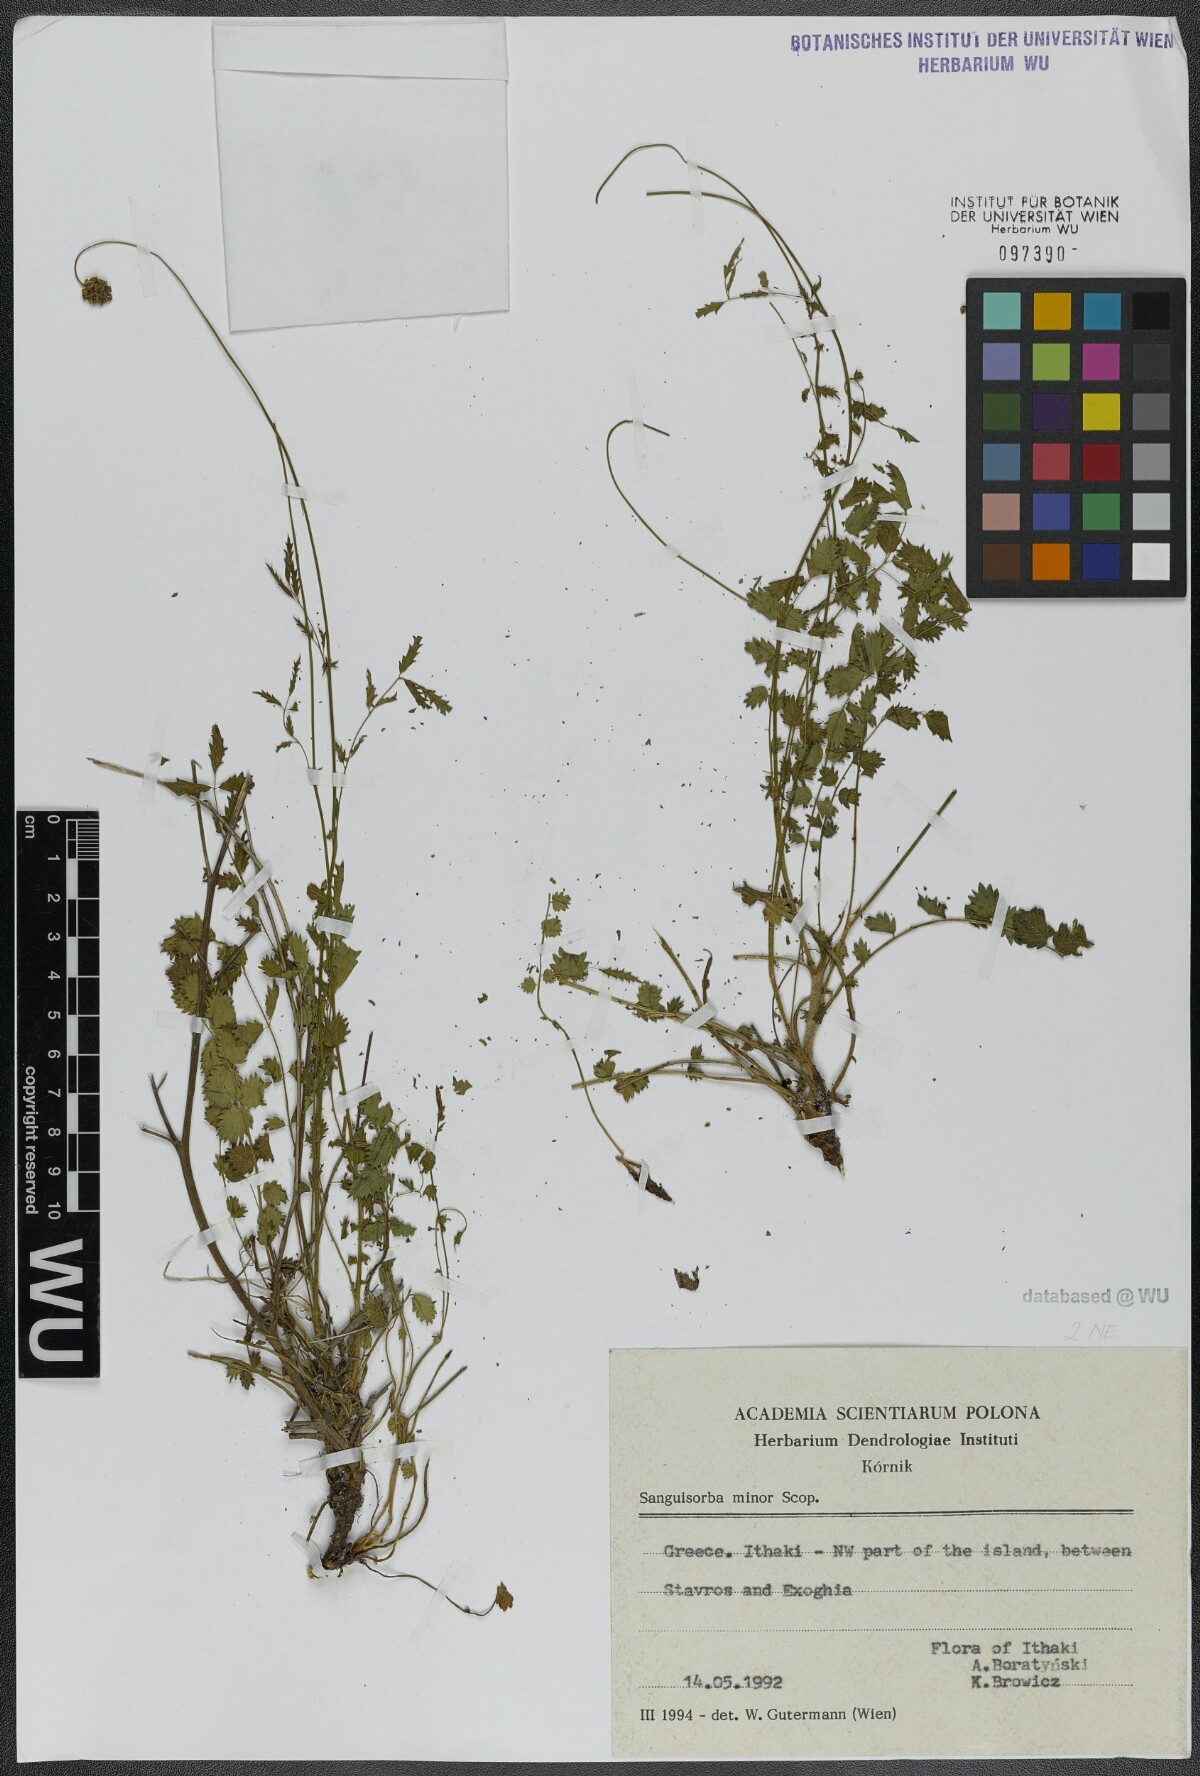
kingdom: Plantae
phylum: Tracheophyta
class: Magnoliopsida
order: Rosales
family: Rosaceae
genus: Poterium
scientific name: Poterium sanguisorba
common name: Salad burnet
